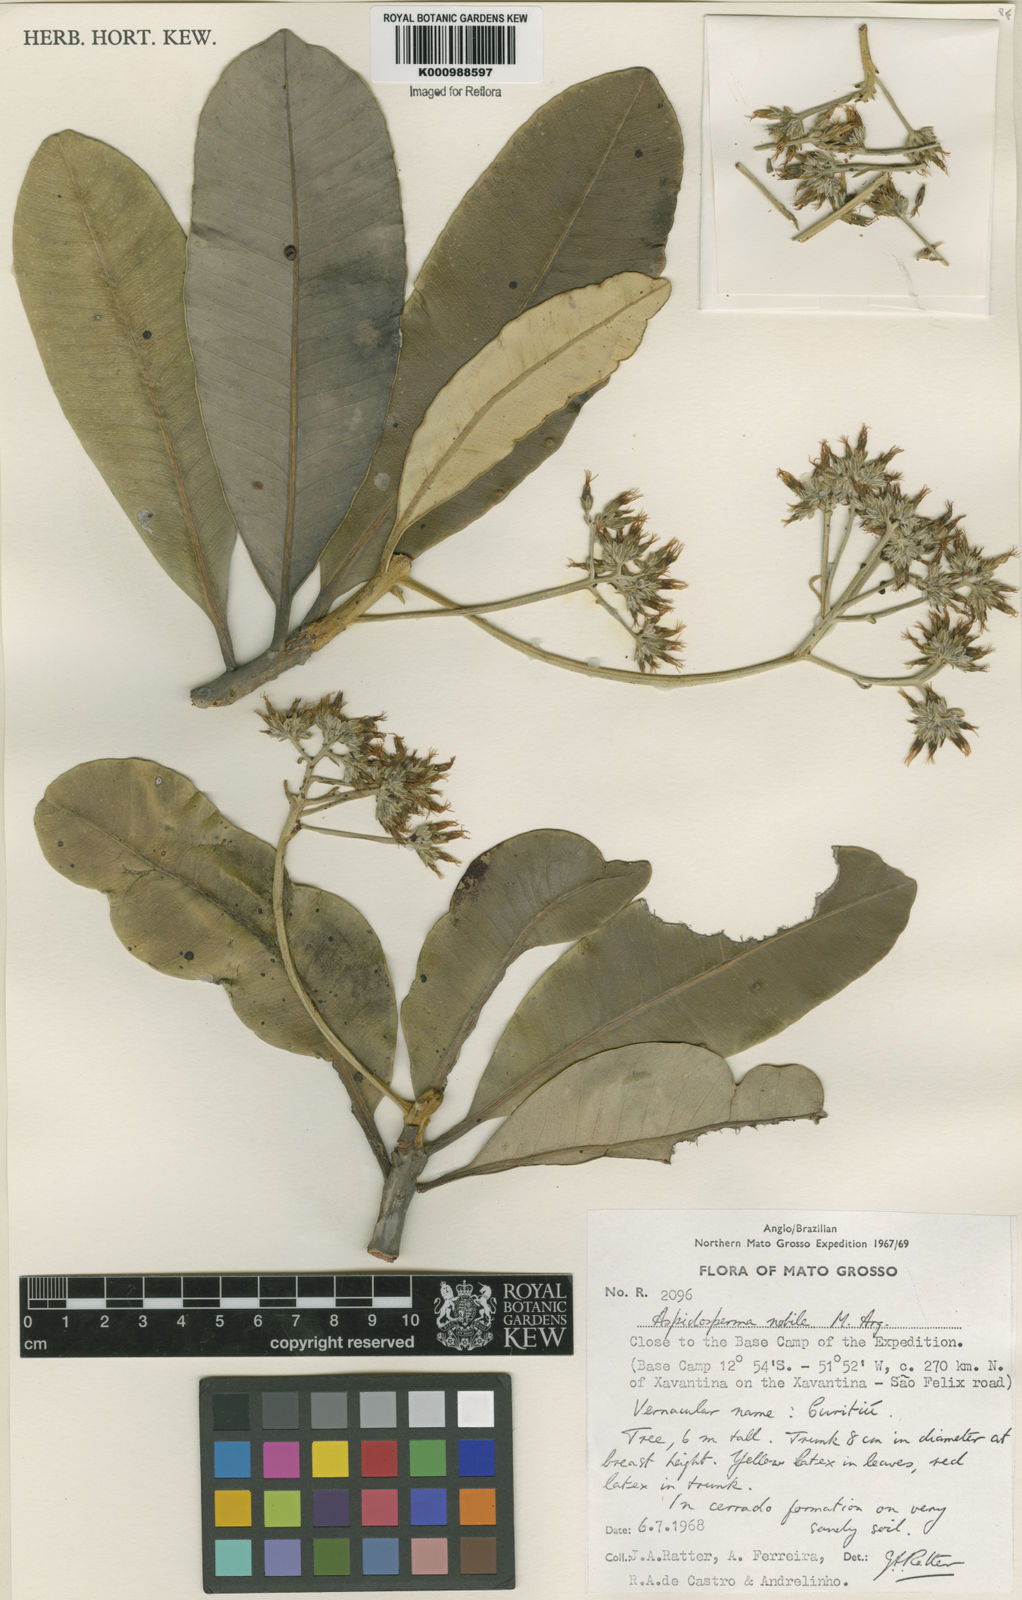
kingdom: Plantae
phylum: Tracheophyta
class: Magnoliopsida
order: Gentianales
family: Apocynaceae
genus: Aspidosperma
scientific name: Aspidosperma
